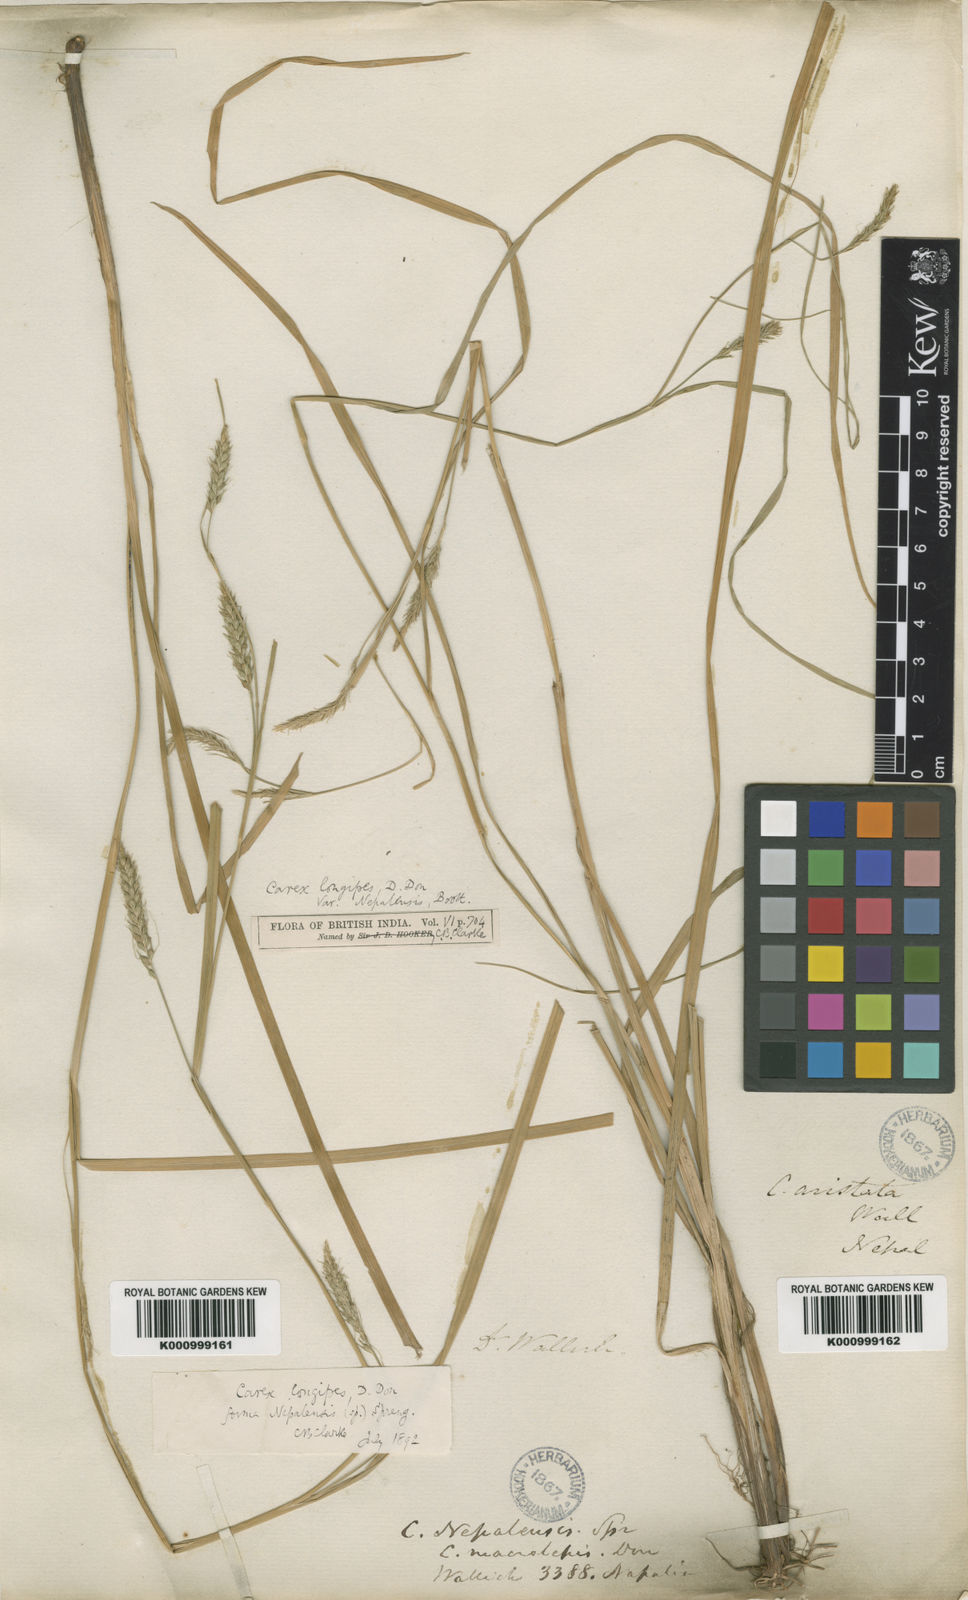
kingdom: Plantae
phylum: Tracheophyta
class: Liliopsida
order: Poales
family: Cyperaceae
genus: Carex
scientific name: Carex longipes
